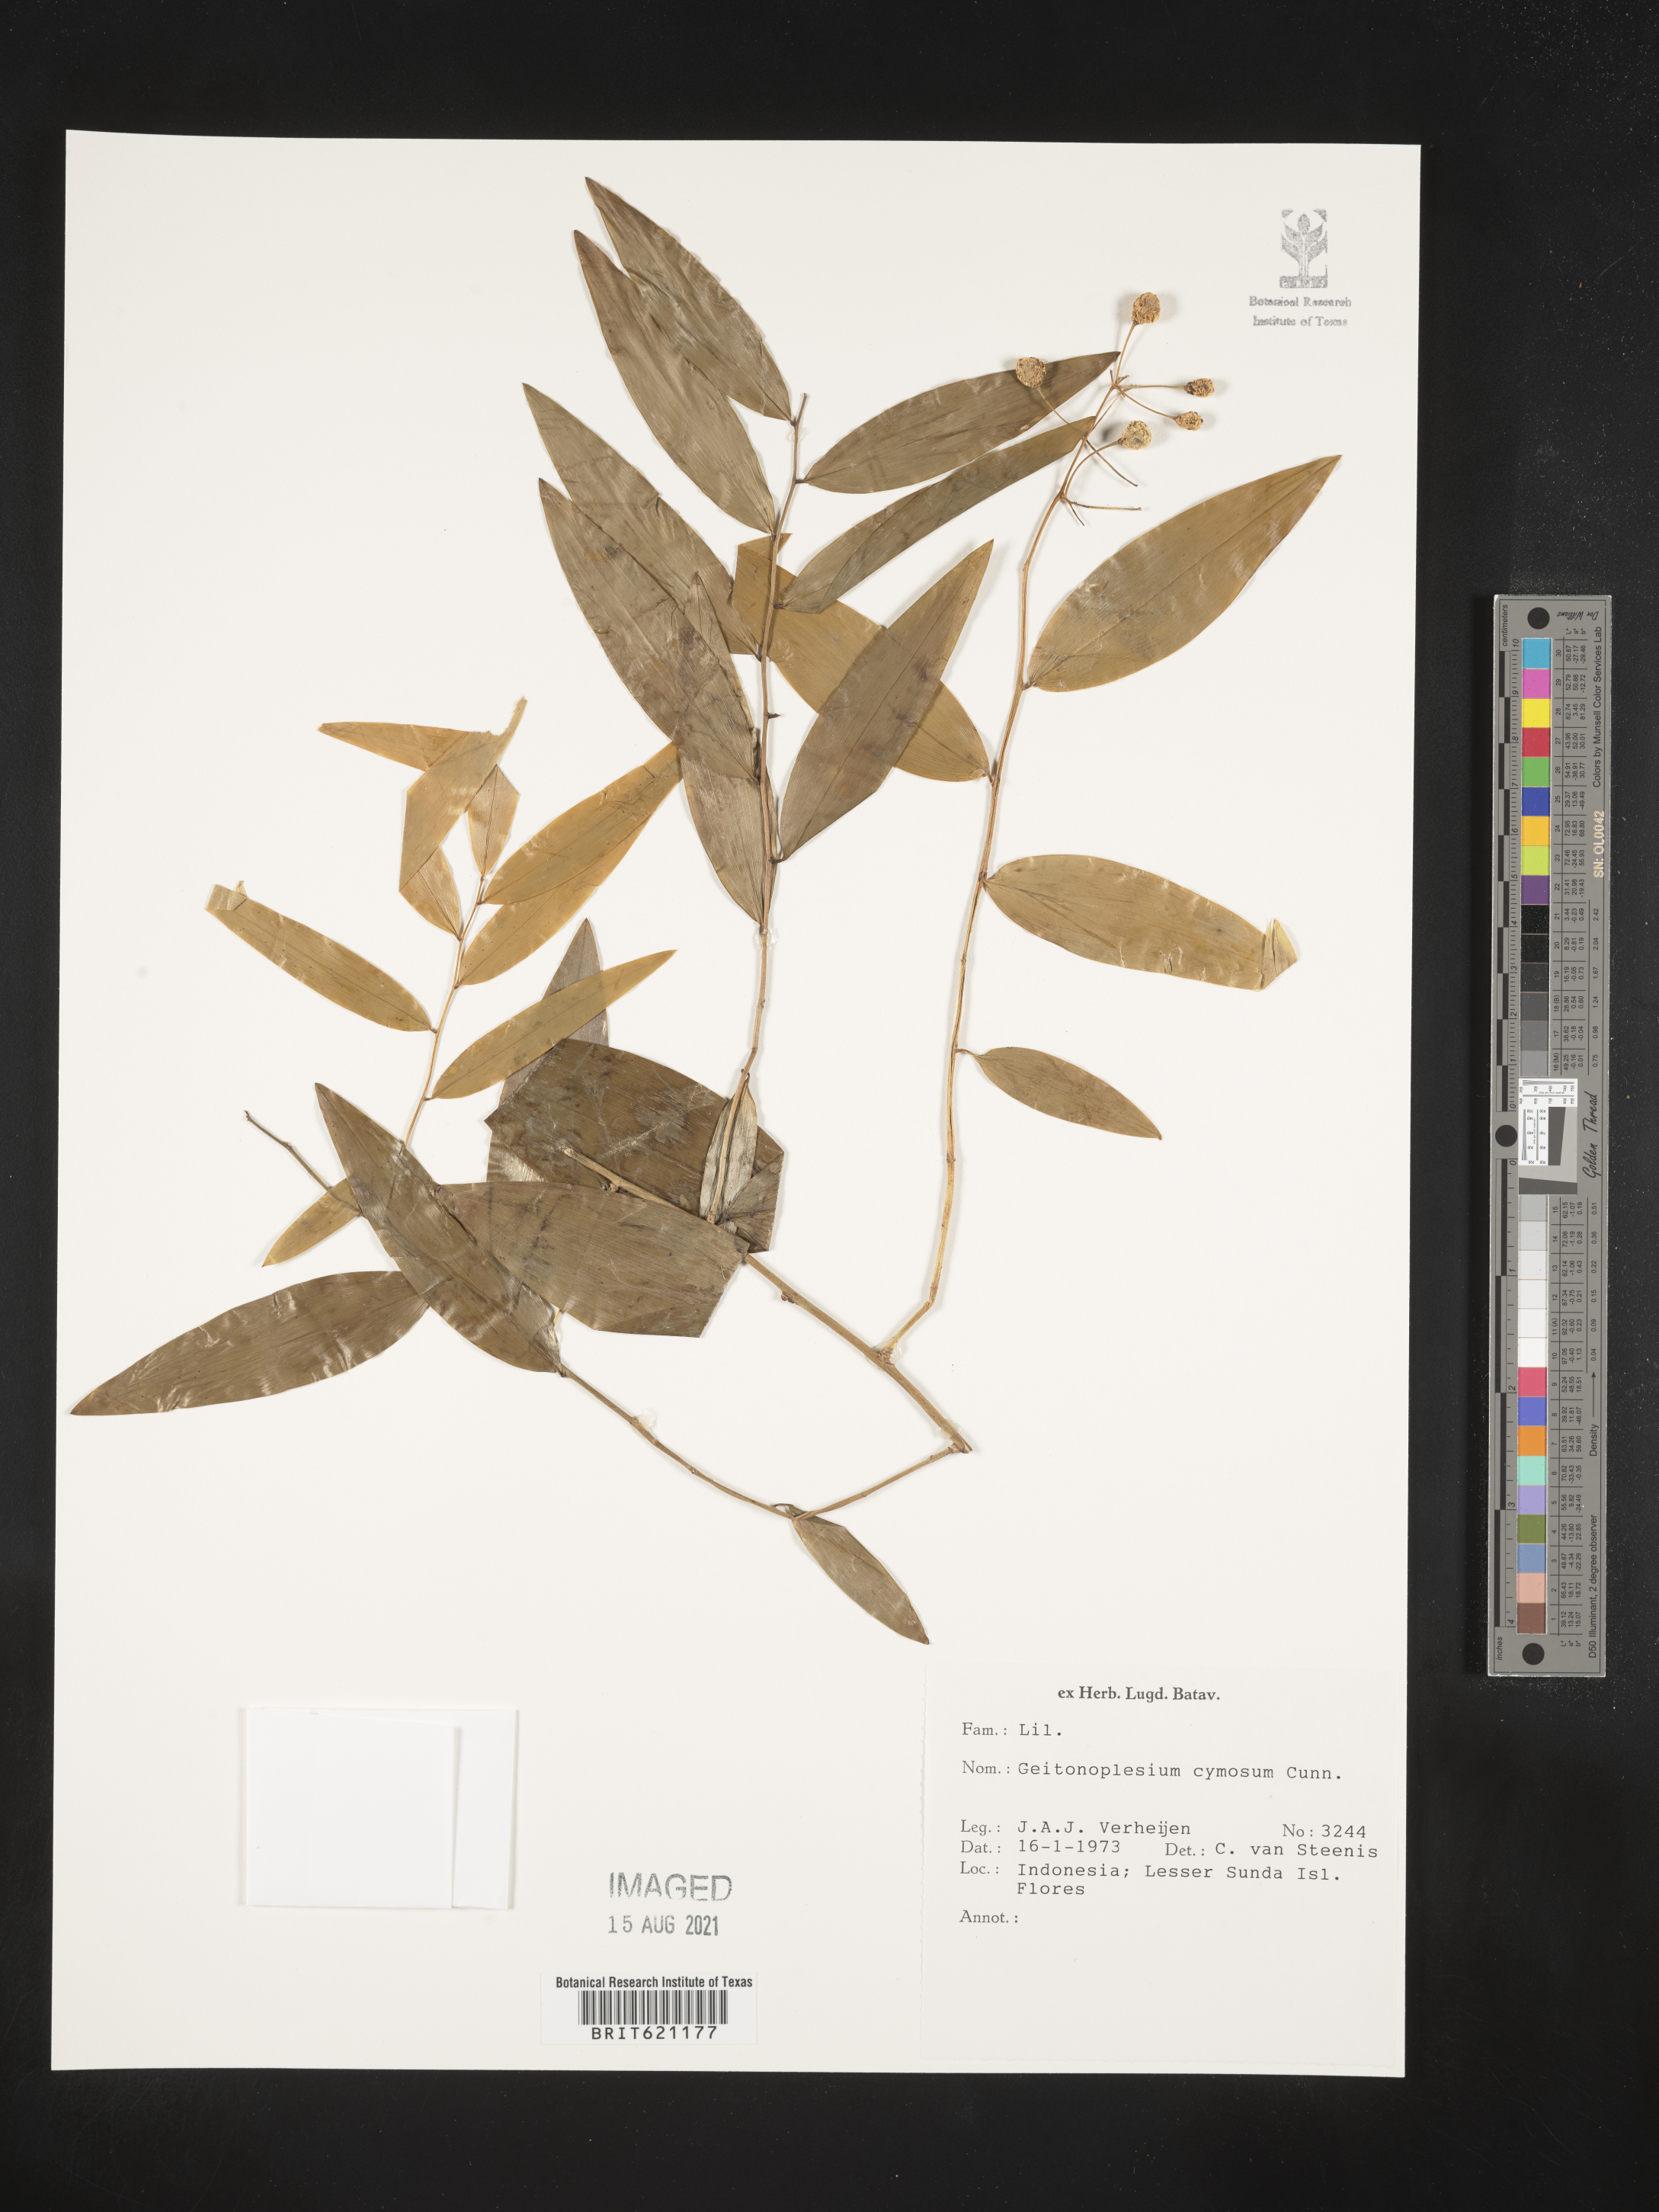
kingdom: Plantae
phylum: Tracheophyta
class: Liliopsida
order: Asparagales
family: Asphodelaceae
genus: Geitonoplesium
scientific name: Geitonoplesium cymosum
